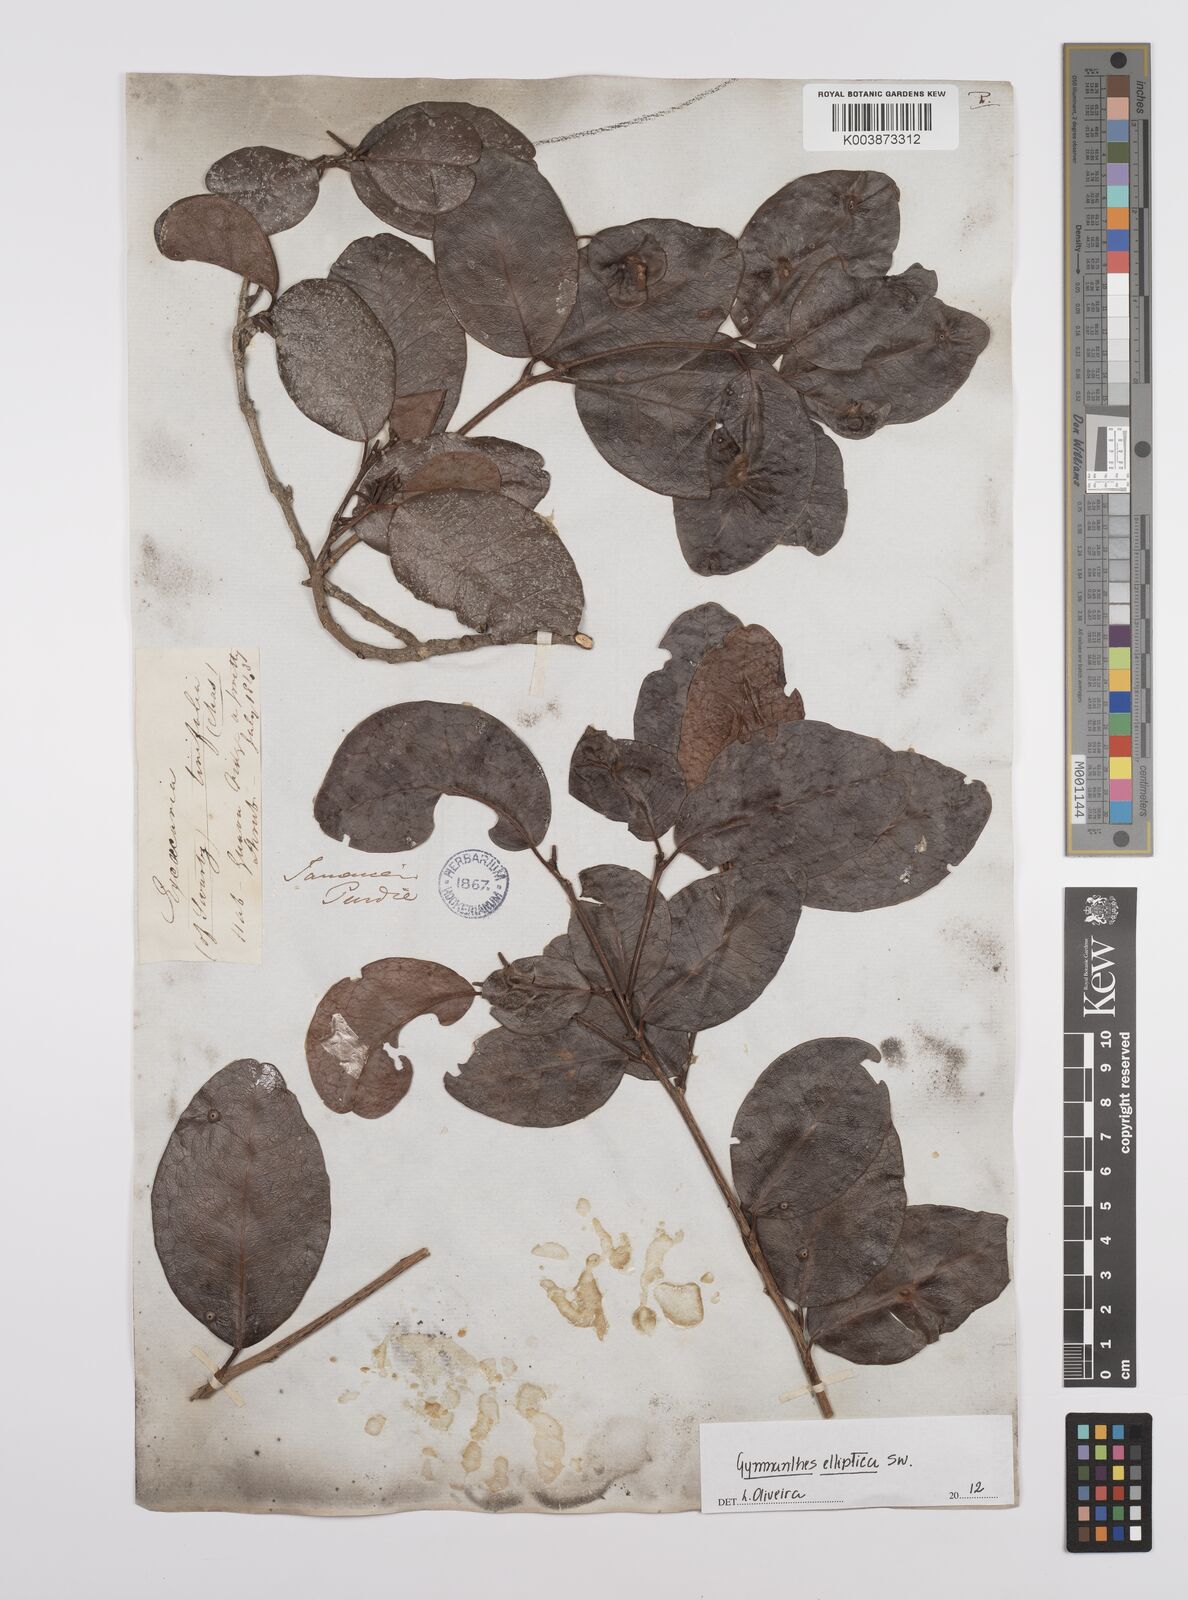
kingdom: Plantae
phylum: Tracheophyta
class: Magnoliopsida
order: Malpighiales
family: Euphorbiaceae
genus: Dendrocousinsia
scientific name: Dendrocousinsia elliptica
